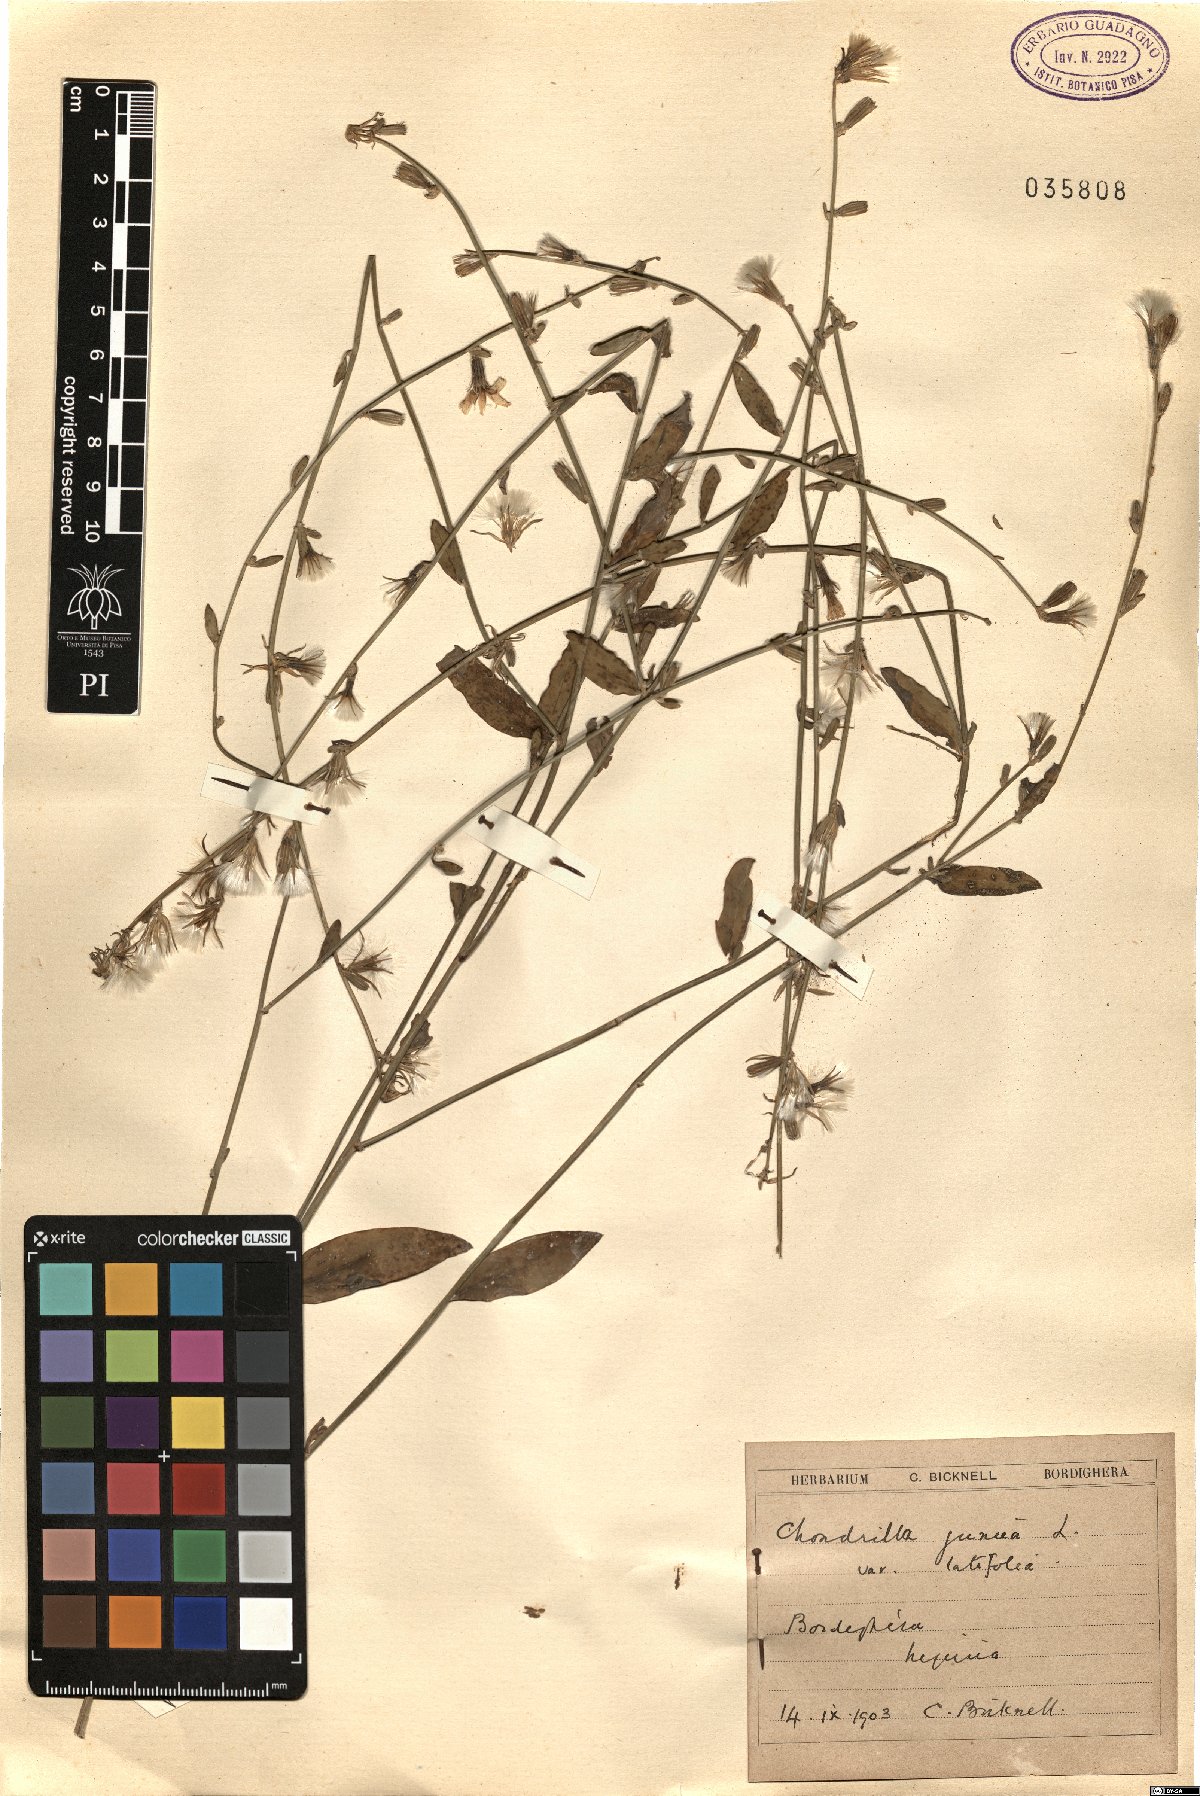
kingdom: Plantae
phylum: Tracheophyta
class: Magnoliopsida
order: Asterales
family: Asteraceae
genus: Chondrilla
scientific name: Chondrilla latifolia
